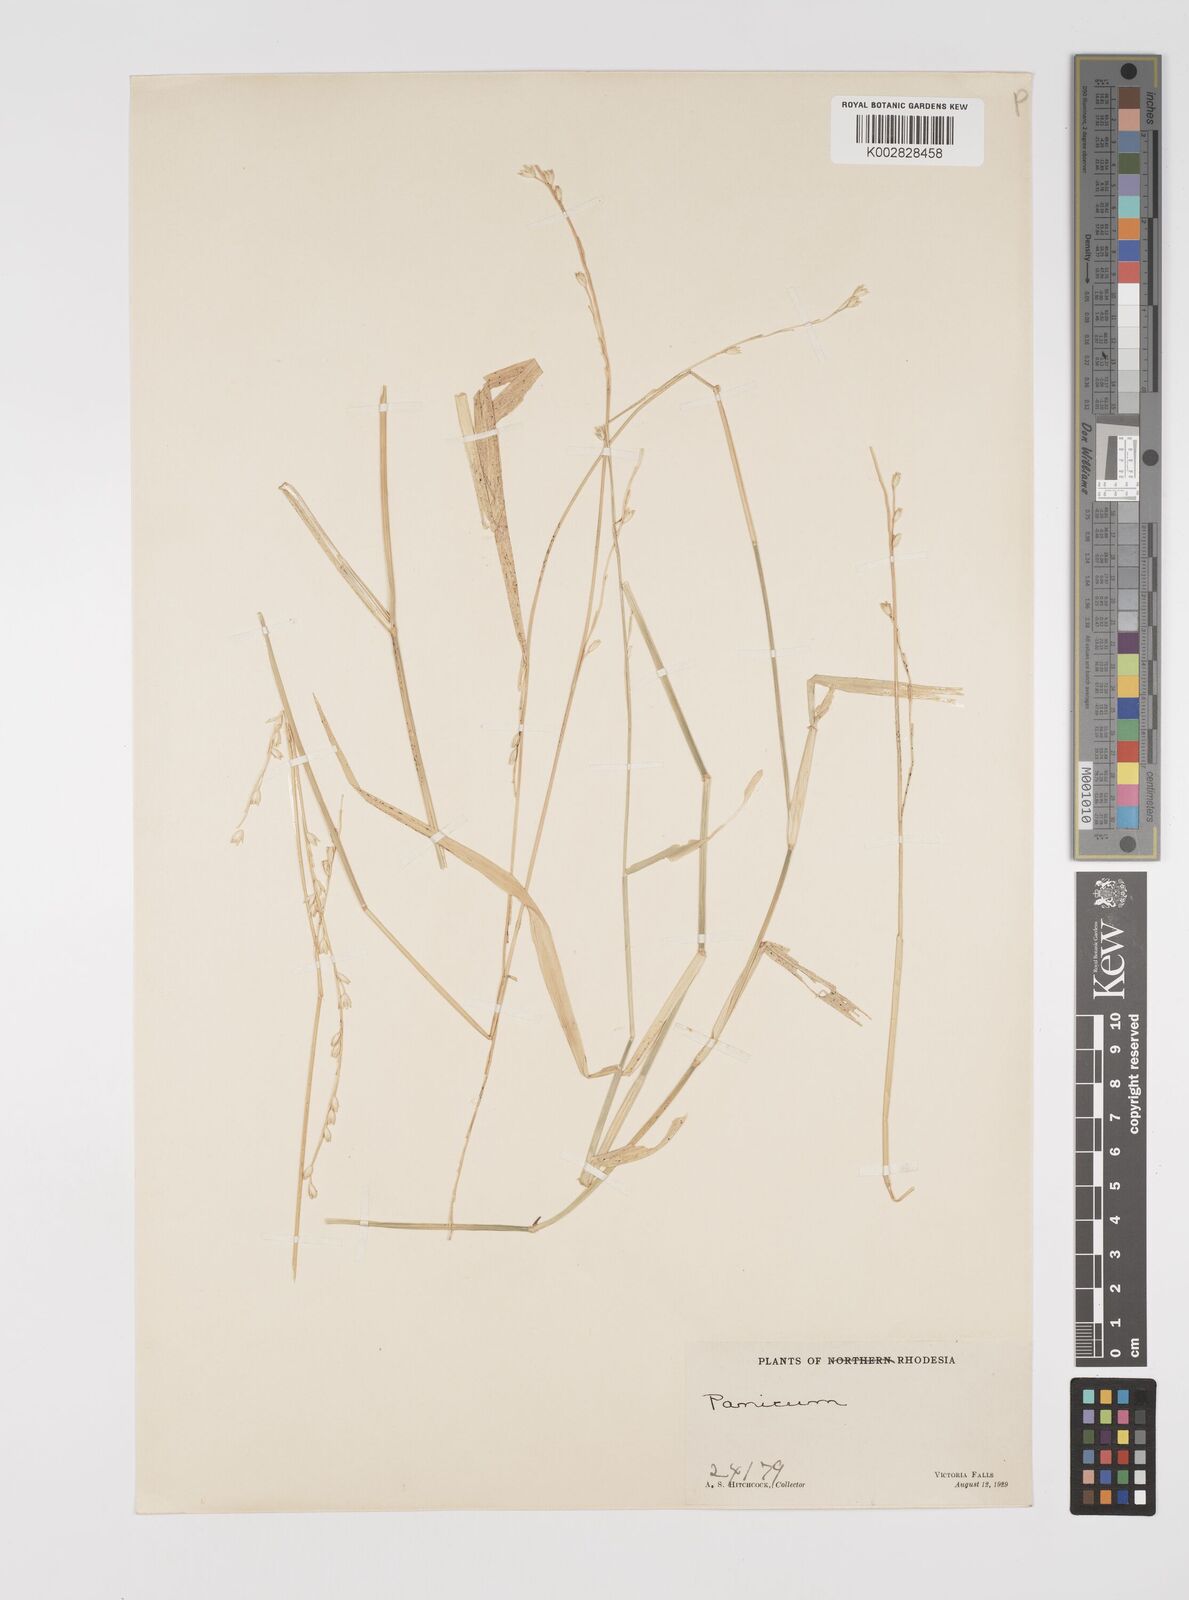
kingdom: Plantae
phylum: Tracheophyta
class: Liliopsida
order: Poales
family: Poaceae
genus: Acroceras
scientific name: Acroceras macrum
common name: Nyl grass
